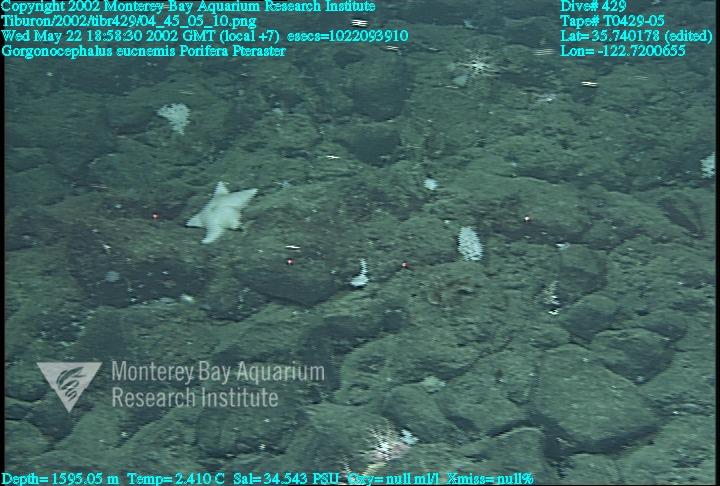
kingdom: Animalia
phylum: Porifera
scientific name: Porifera
